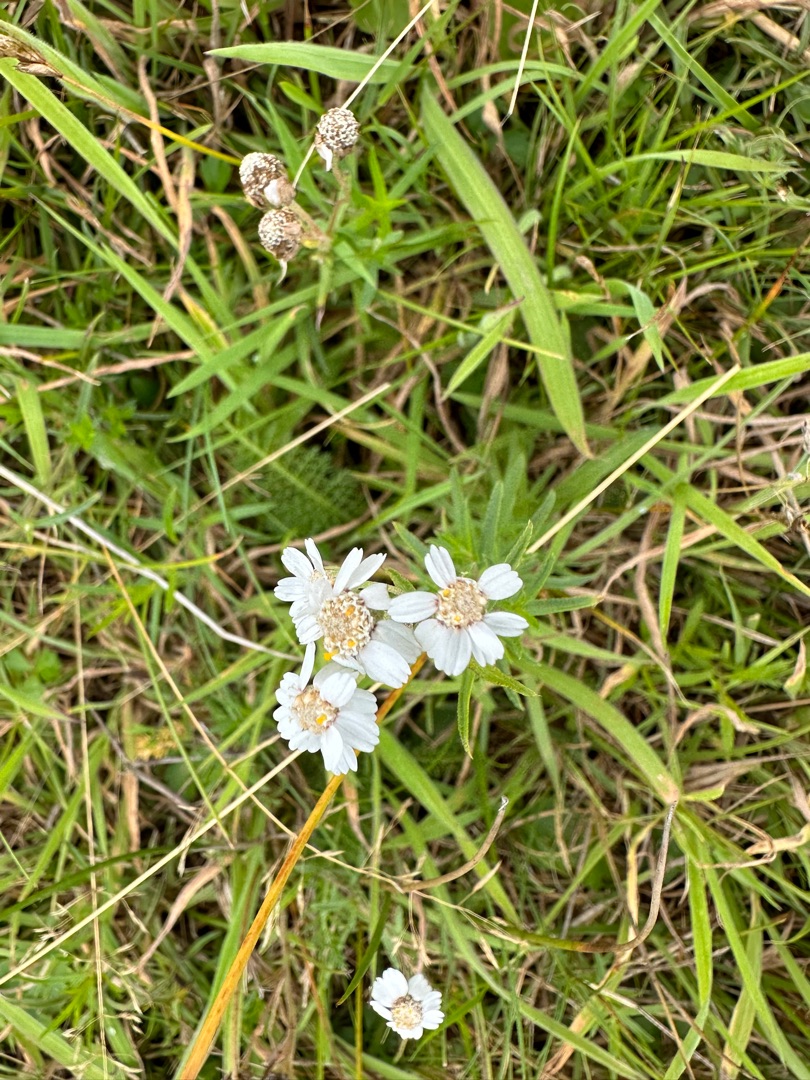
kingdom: Plantae
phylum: Tracheophyta
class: Magnoliopsida
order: Asterales
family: Asteraceae
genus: Achillea
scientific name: Achillea ptarmica
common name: Nyse-røllike
